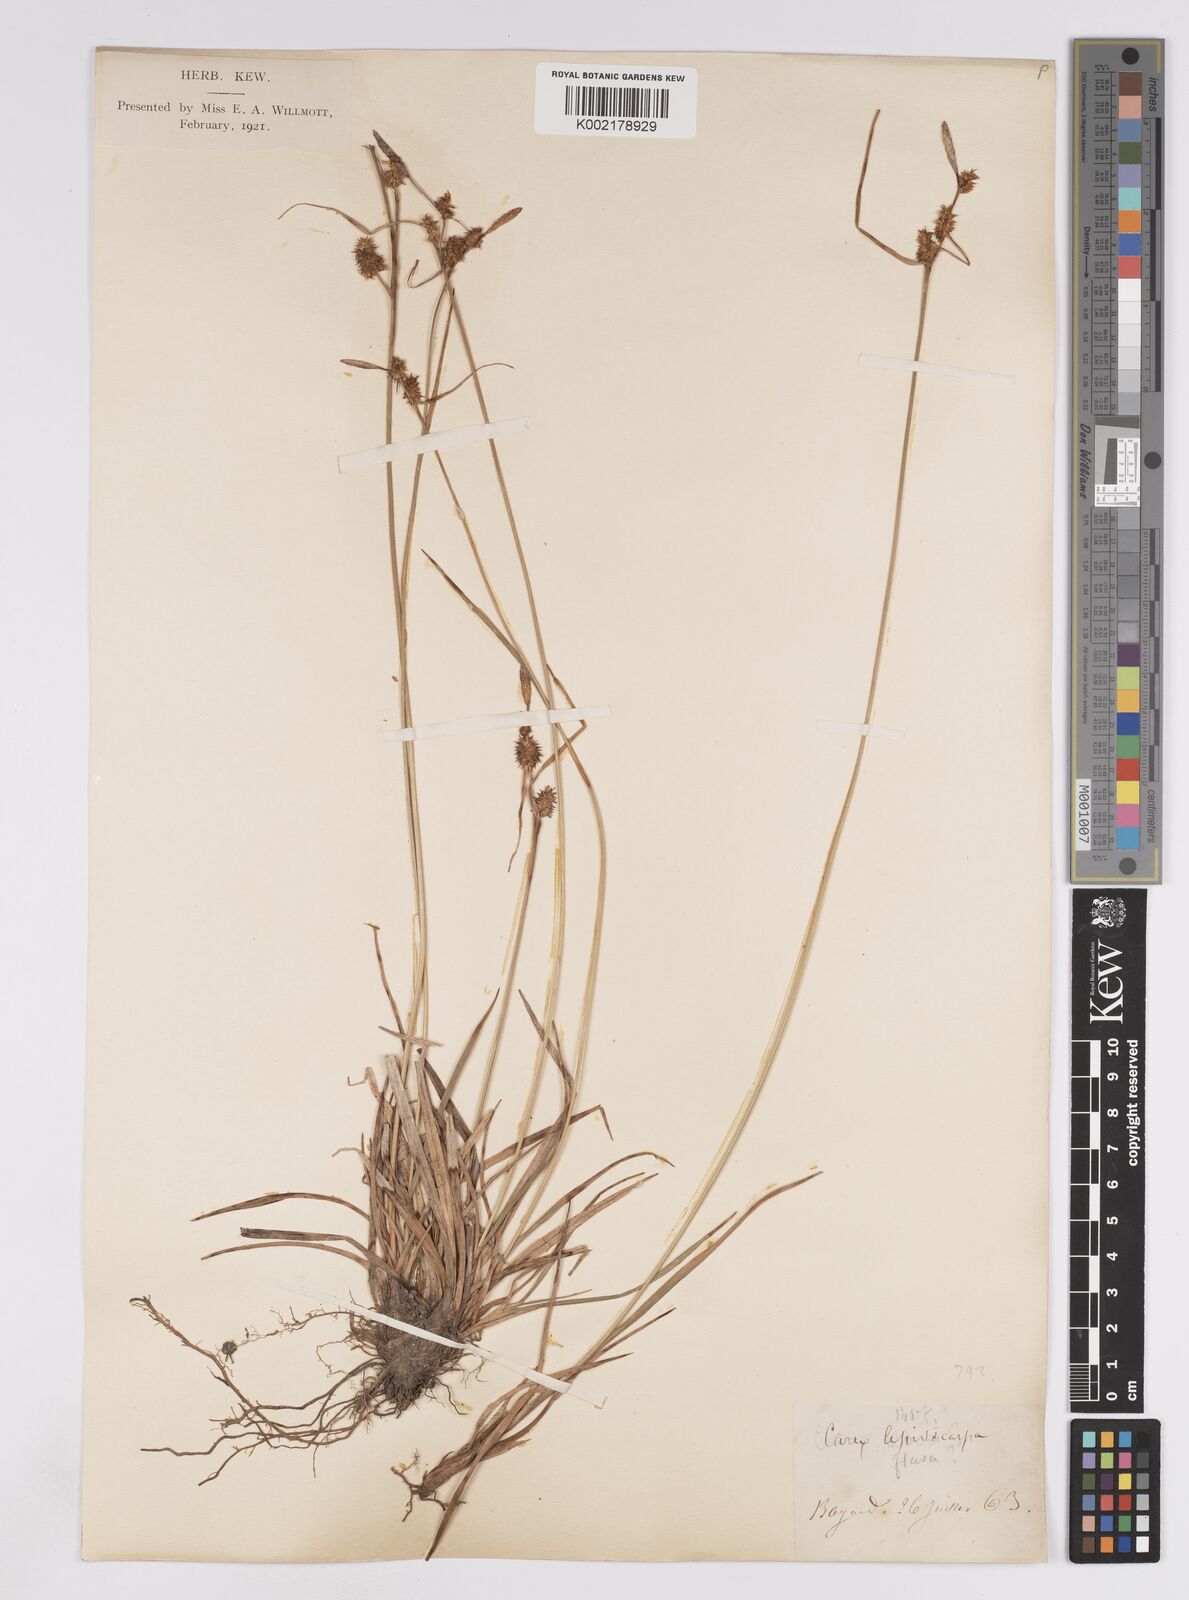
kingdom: Plantae
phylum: Tracheophyta
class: Liliopsida
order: Poales
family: Cyperaceae
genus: Carex
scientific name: Carex lepidocarpa
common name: Long-stalked yellow-sedge
